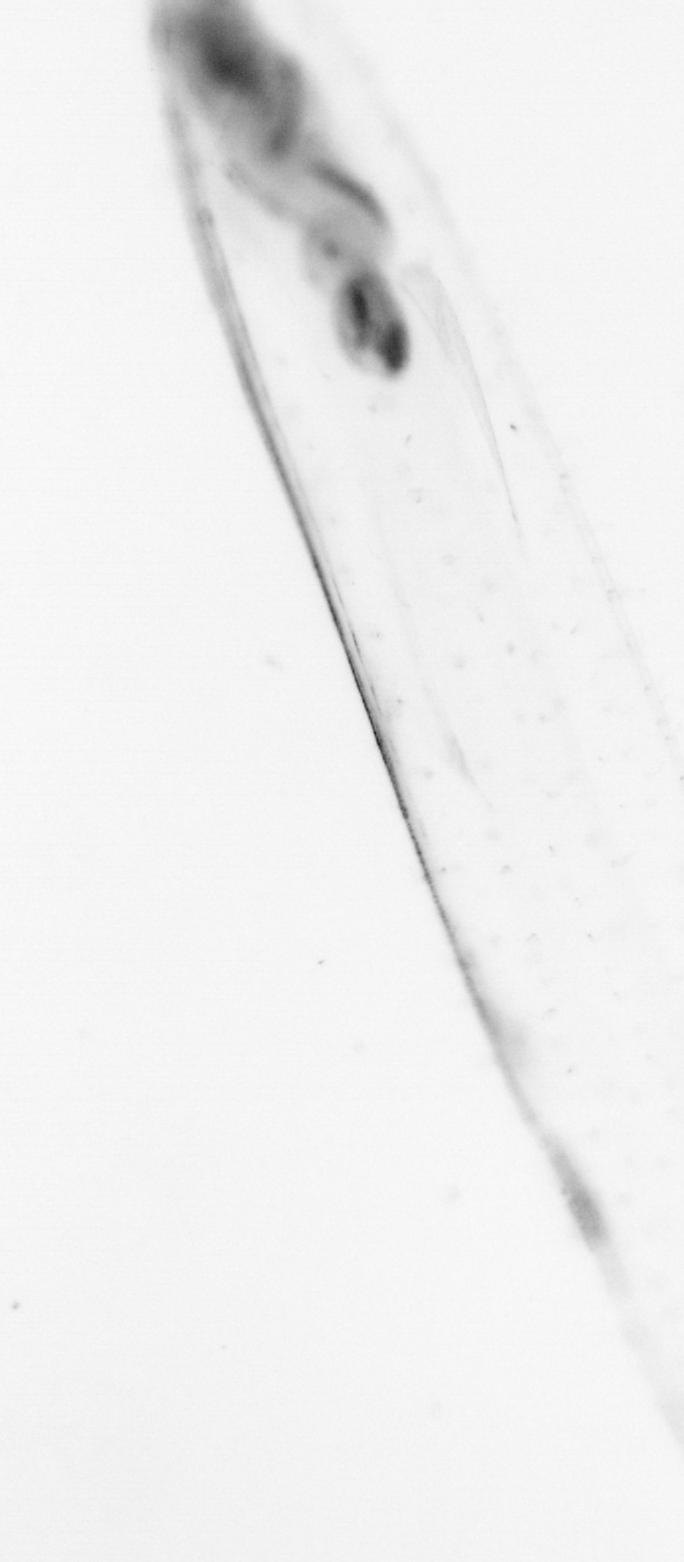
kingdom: Animalia
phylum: Chaetognatha
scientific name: Chaetognatha
